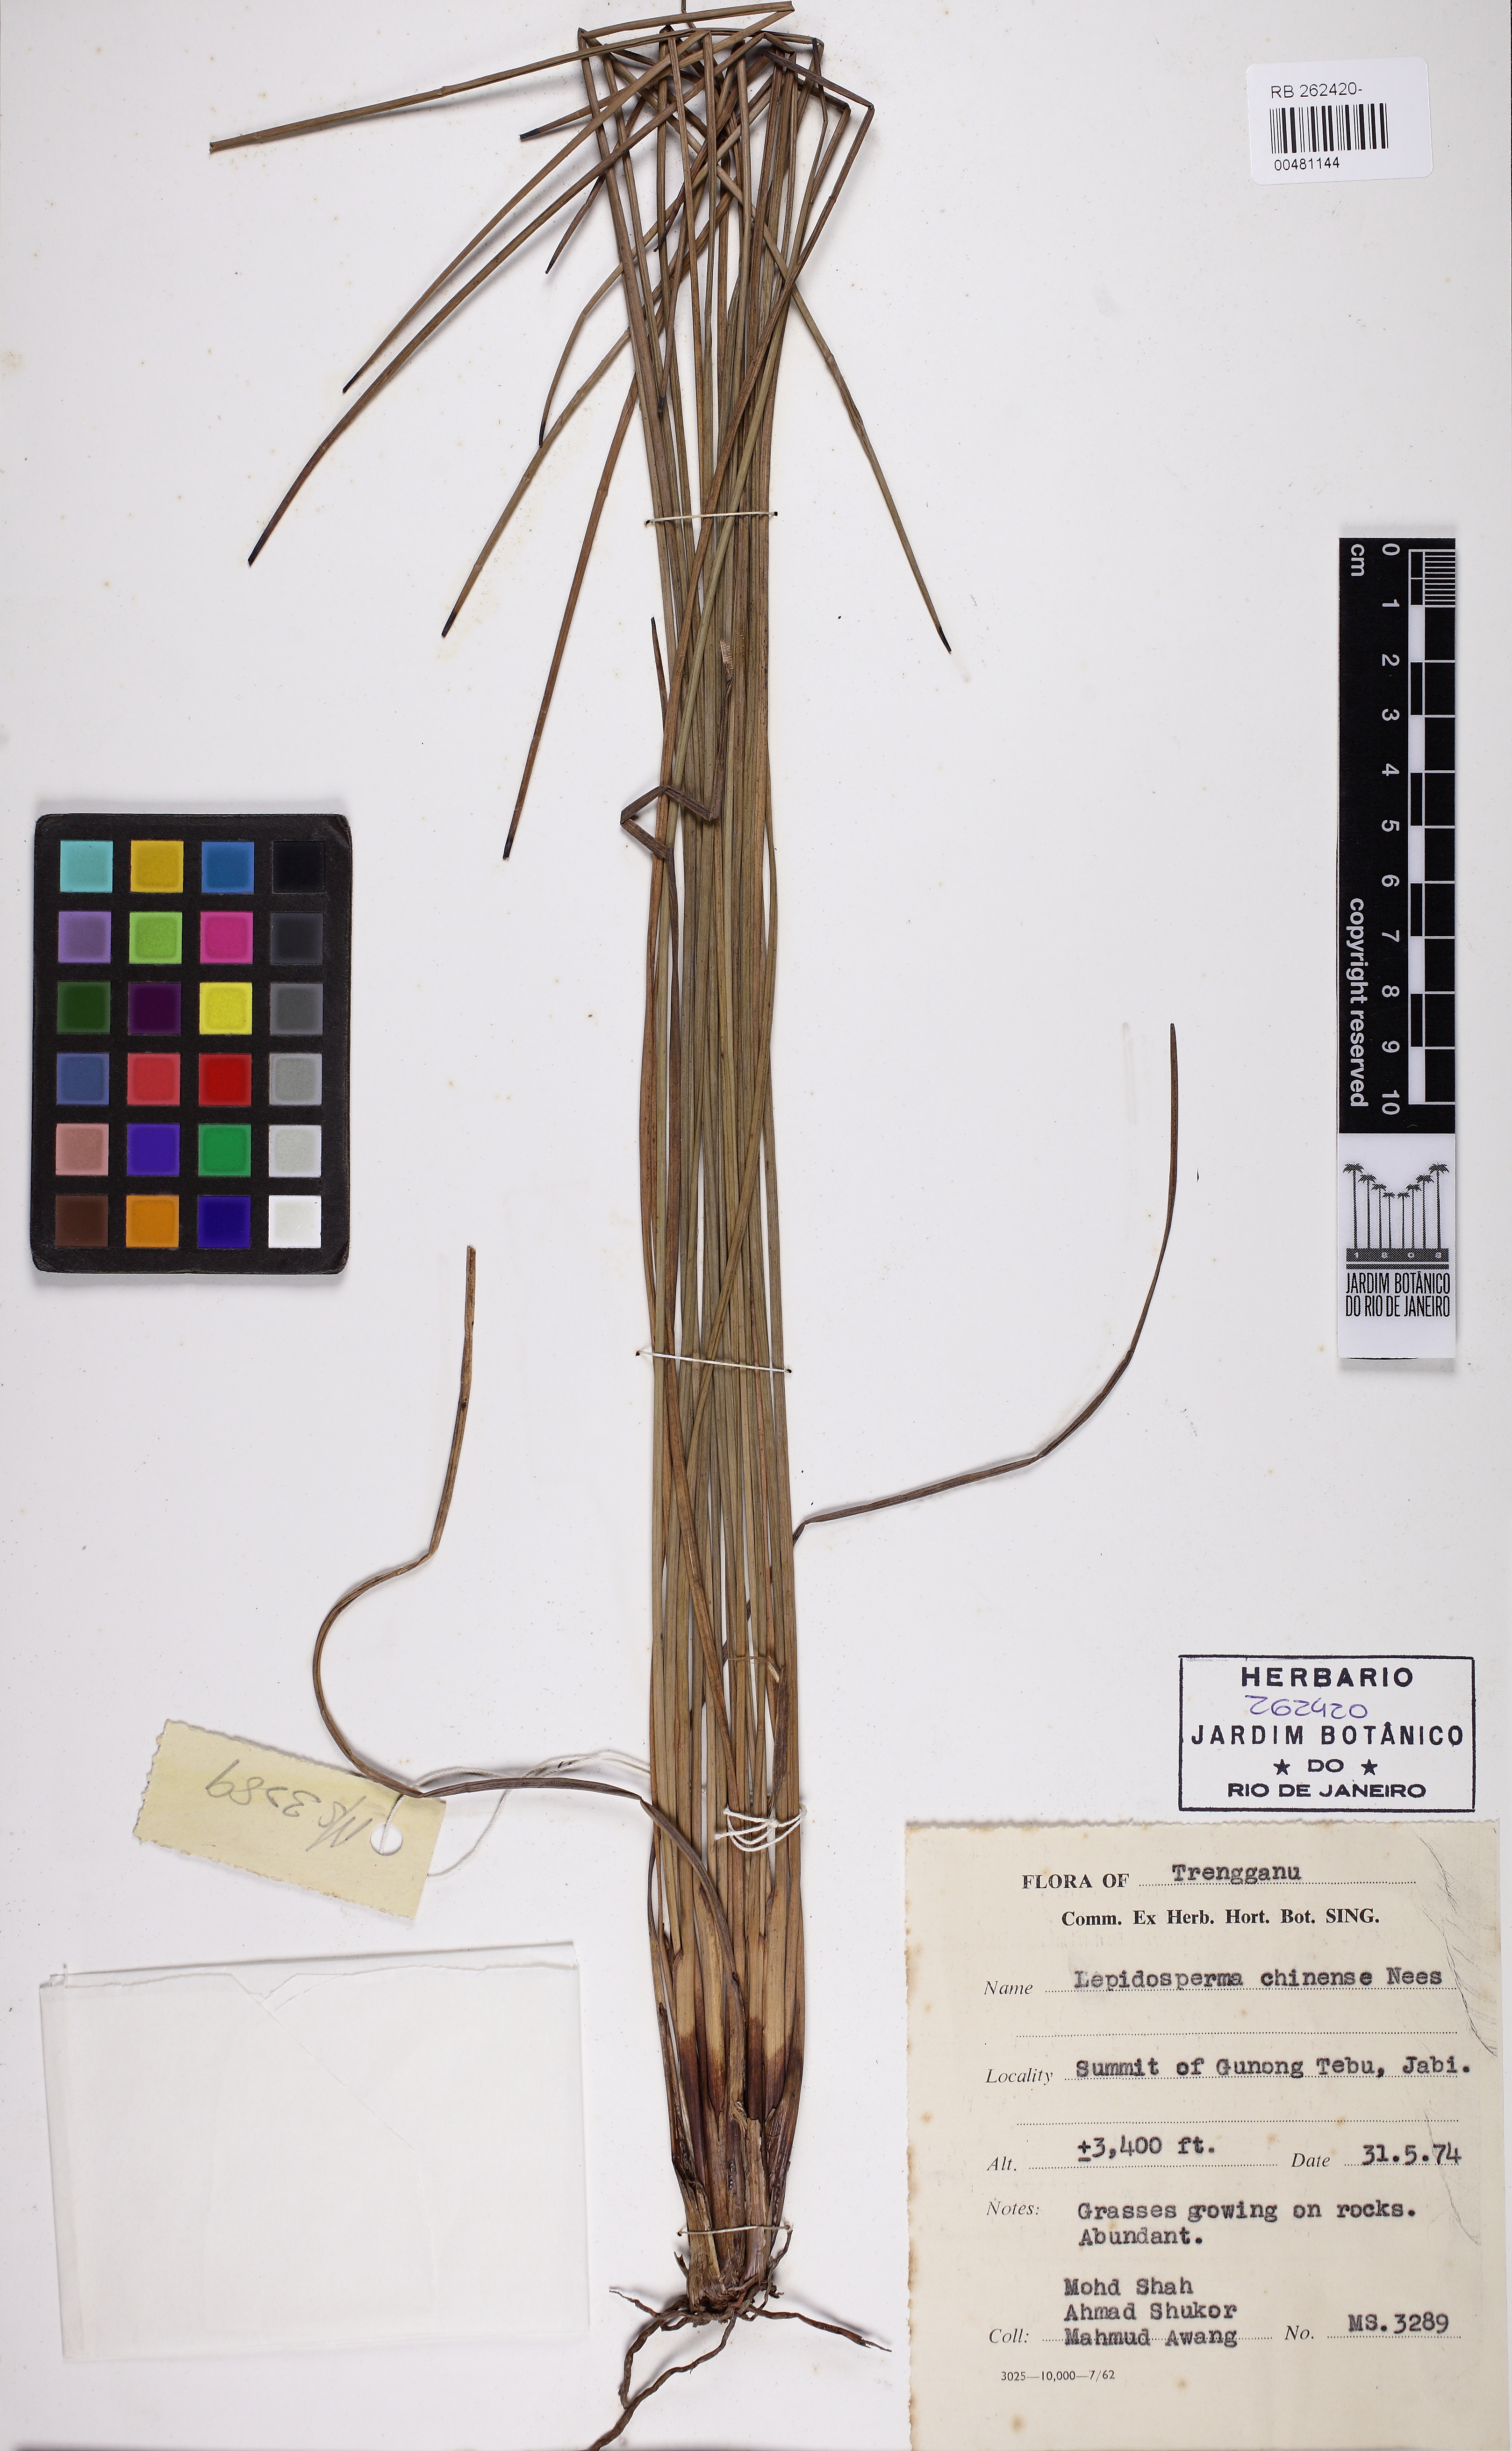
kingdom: Plantae
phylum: Tracheophyta
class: Liliopsida
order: Poales
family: Cyperaceae
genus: Lepidosperma
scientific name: Lepidosperma chinense
